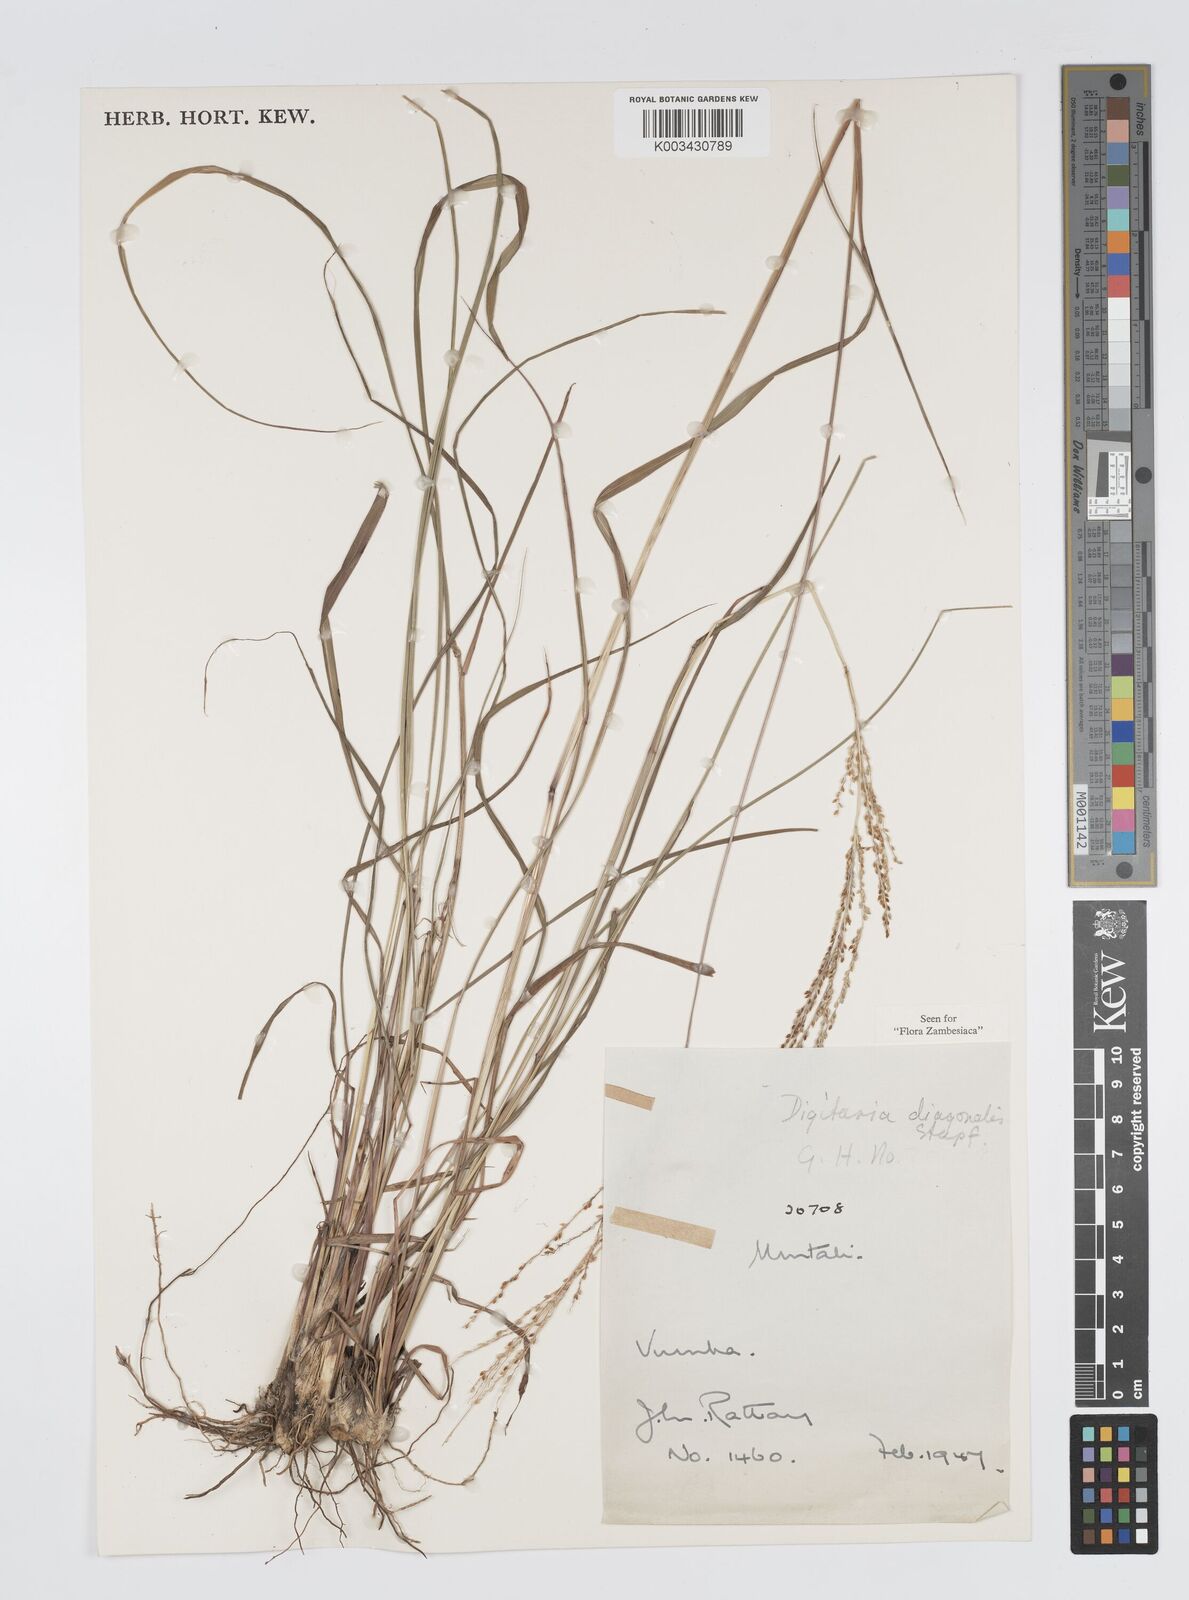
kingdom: Plantae
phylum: Tracheophyta
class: Liliopsida
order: Poales
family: Poaceae
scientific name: Poaceae
